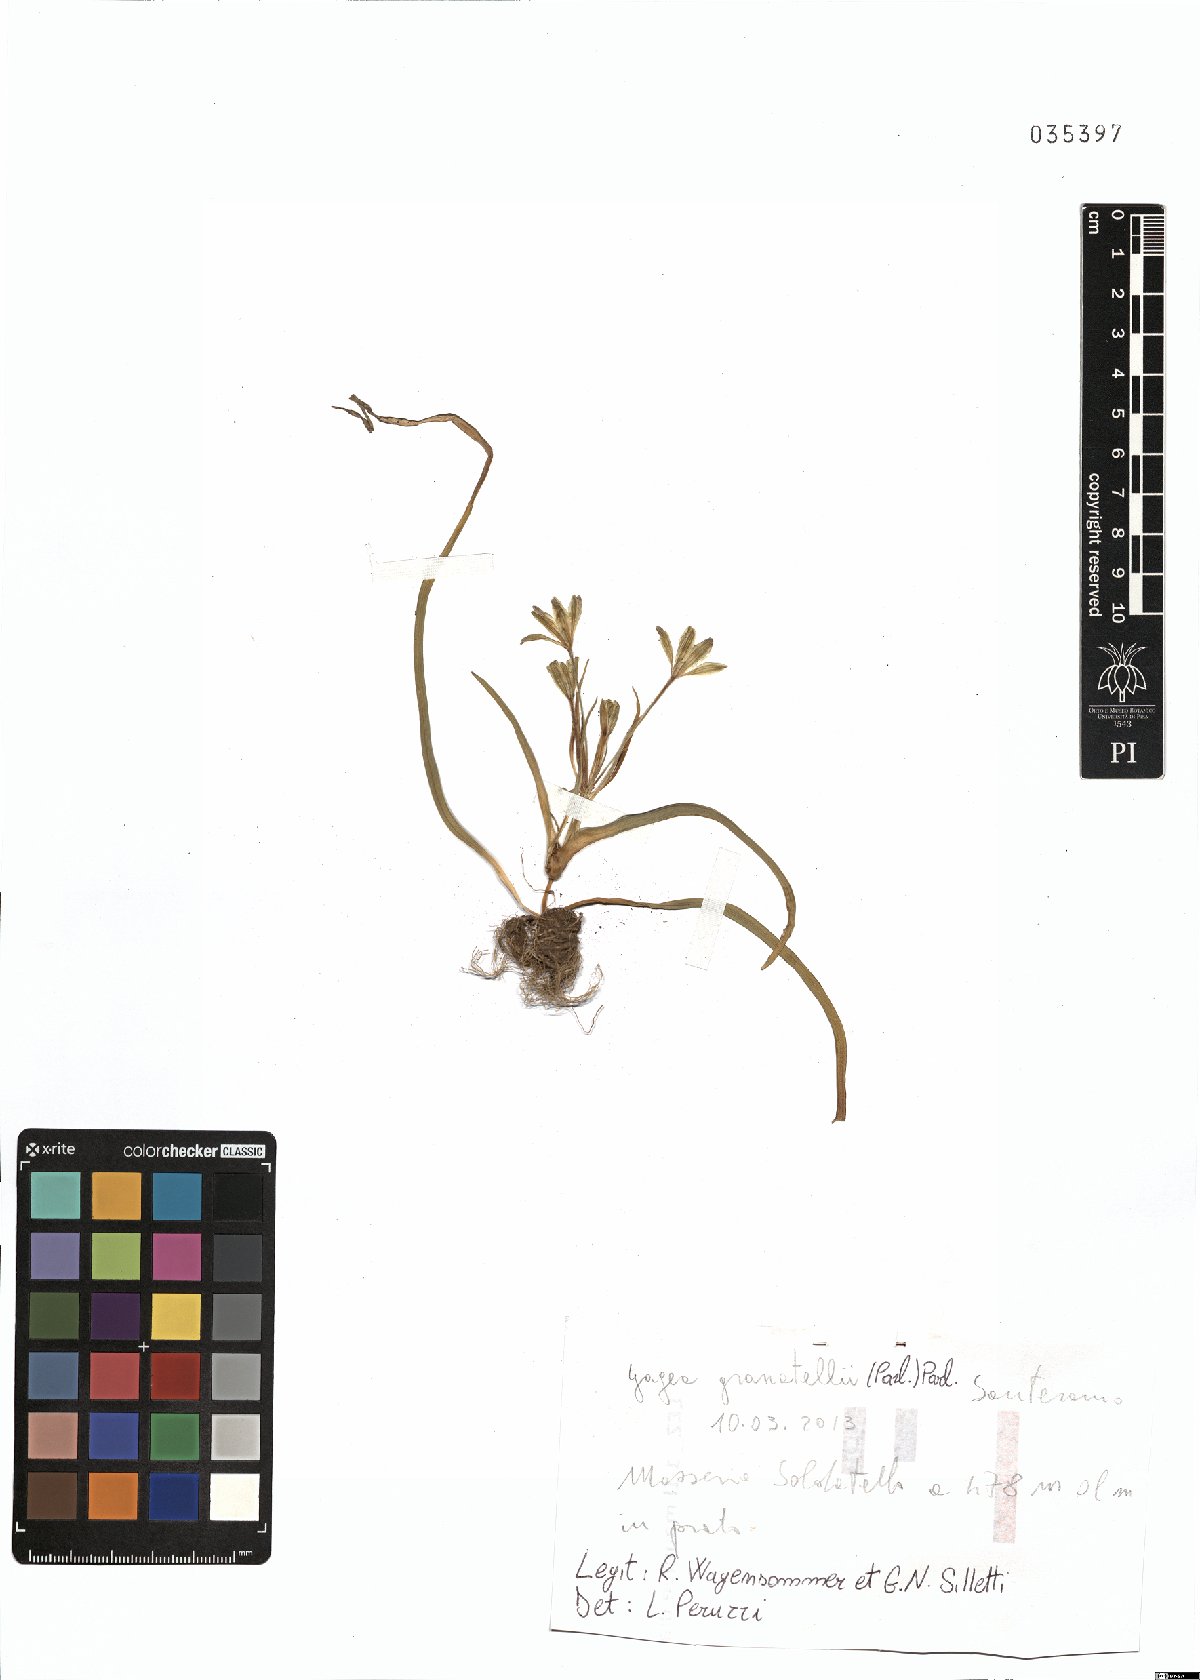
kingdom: Plantae
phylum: Tracheophyta
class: Liliopsida
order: Liliales
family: Liliaceae
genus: Gagea
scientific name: Gagea granatellii
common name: Granatelli’s gagea
